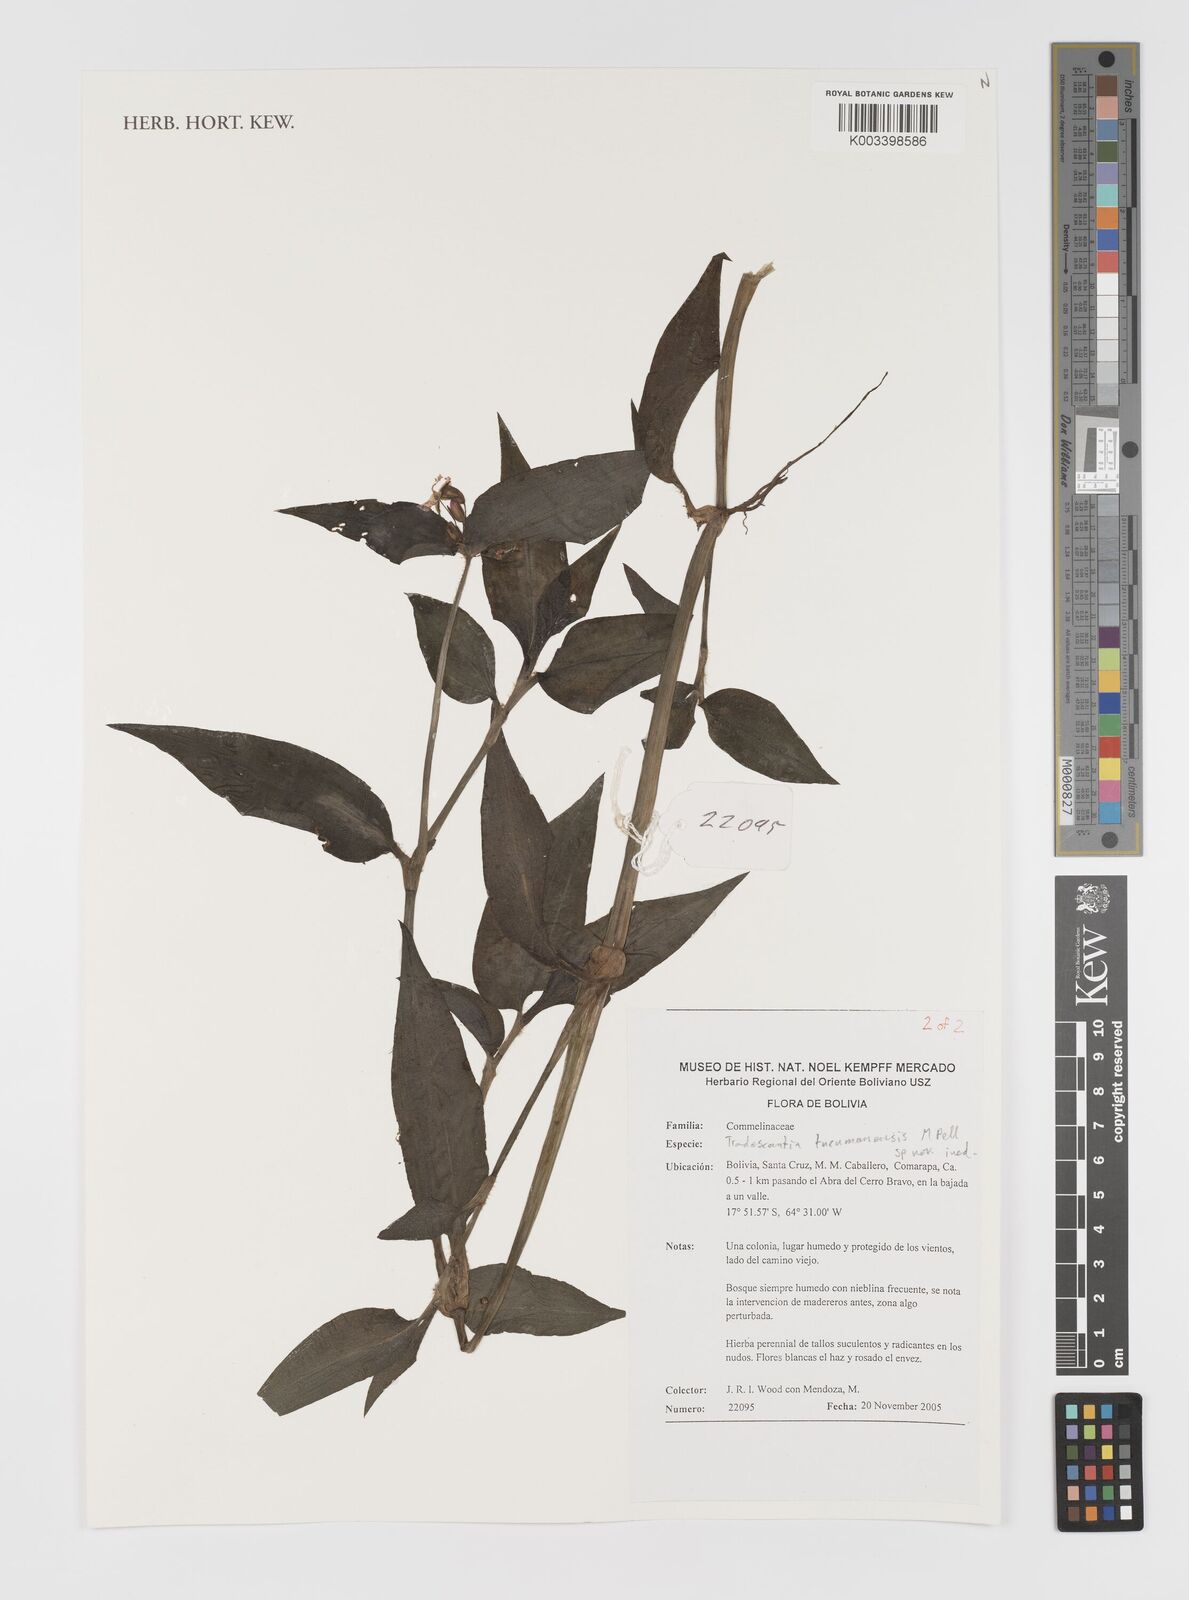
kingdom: Plantae
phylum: Tracheophyta
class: Liliopsida
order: Commelinales
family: Commelinaceae
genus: Tradescantia
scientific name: Tradescantia tucumanensis
